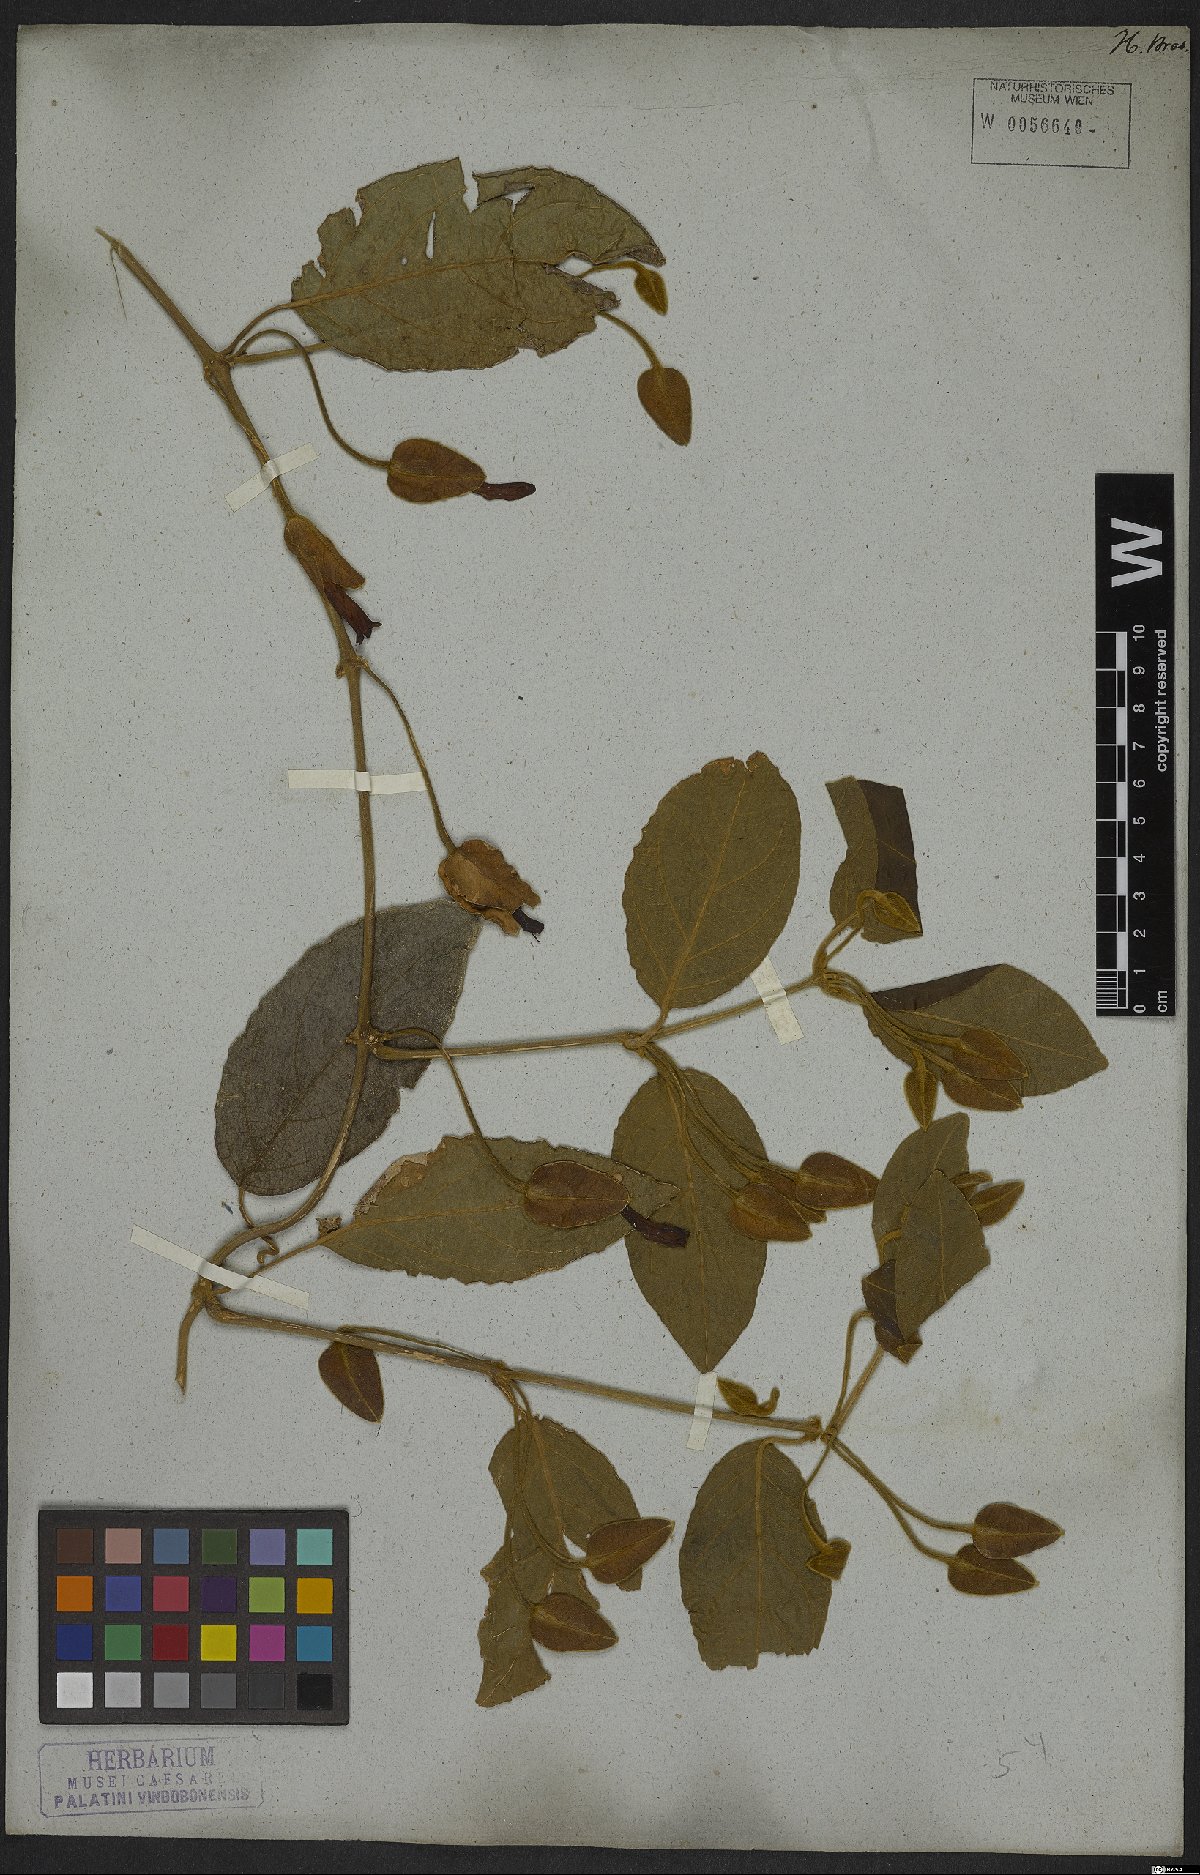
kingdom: Plantae
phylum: Tracheophyta
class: Magnoliopsida
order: Lamiales
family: Acanthaceae
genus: Mendoncia
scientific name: Mendoncia velloziana
